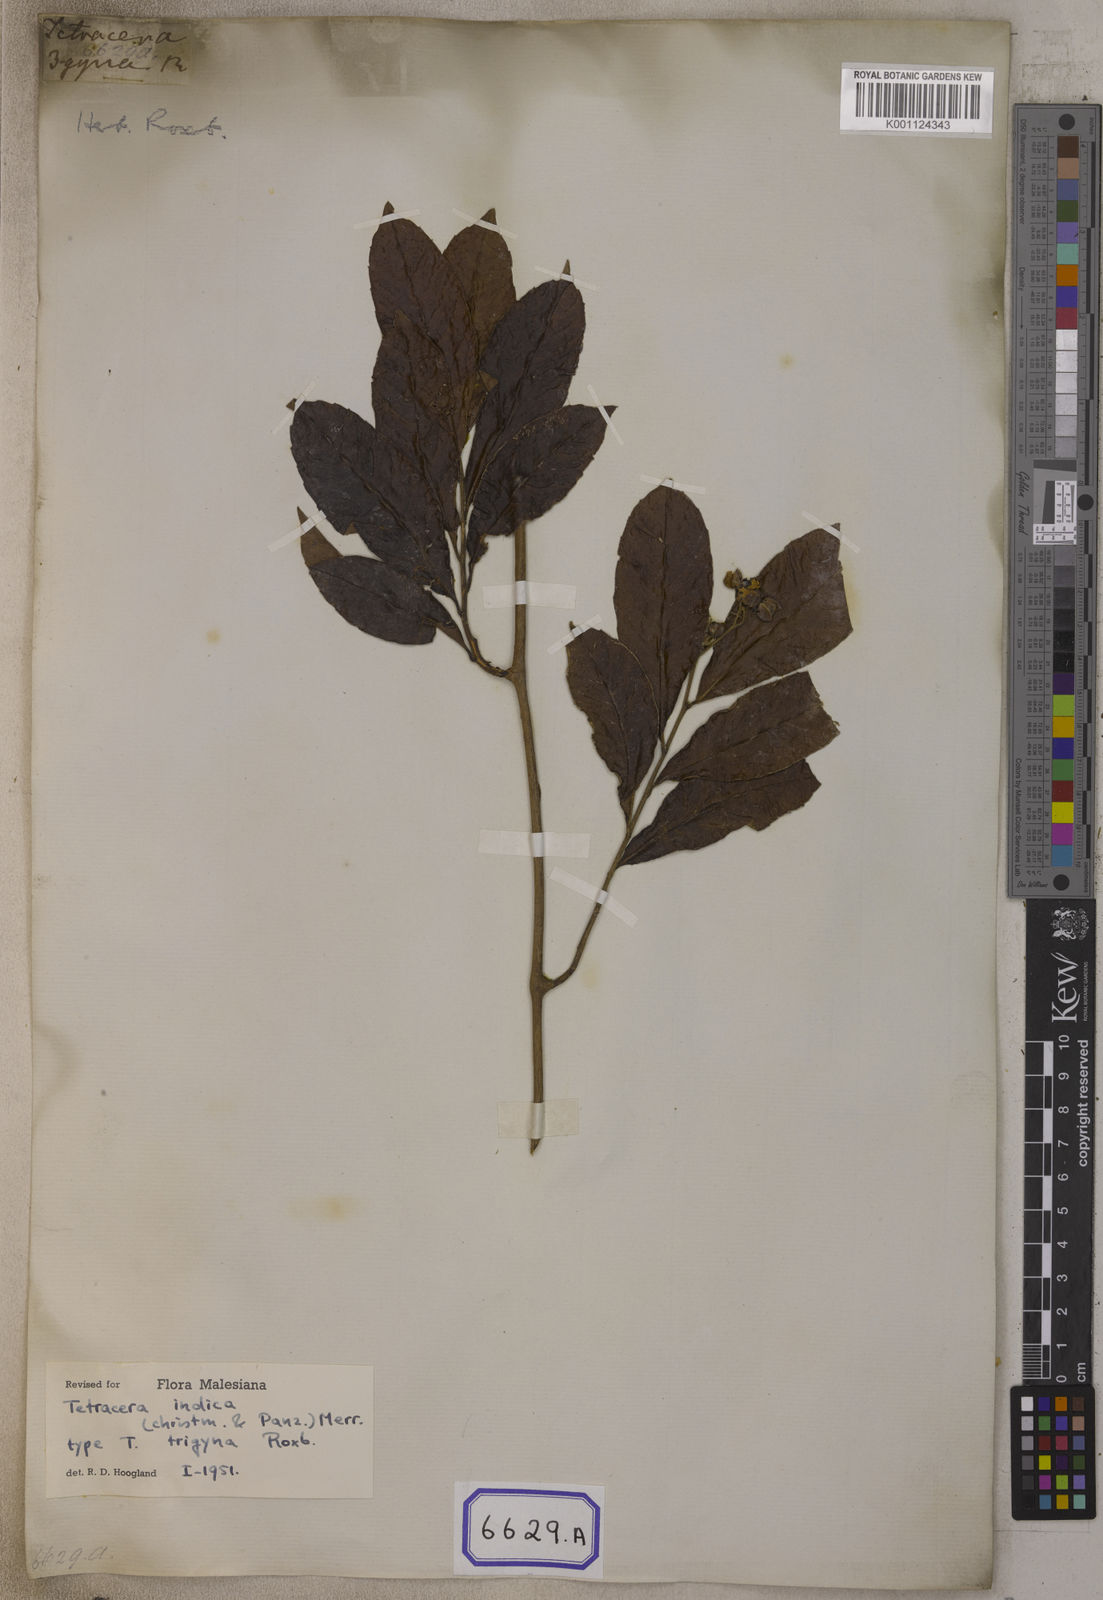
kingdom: Plantae
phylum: Tracheophyta
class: Magnoliopsida
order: Dilleniales
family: Dilleniaceae
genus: Tetracera
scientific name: Tetracera indica
